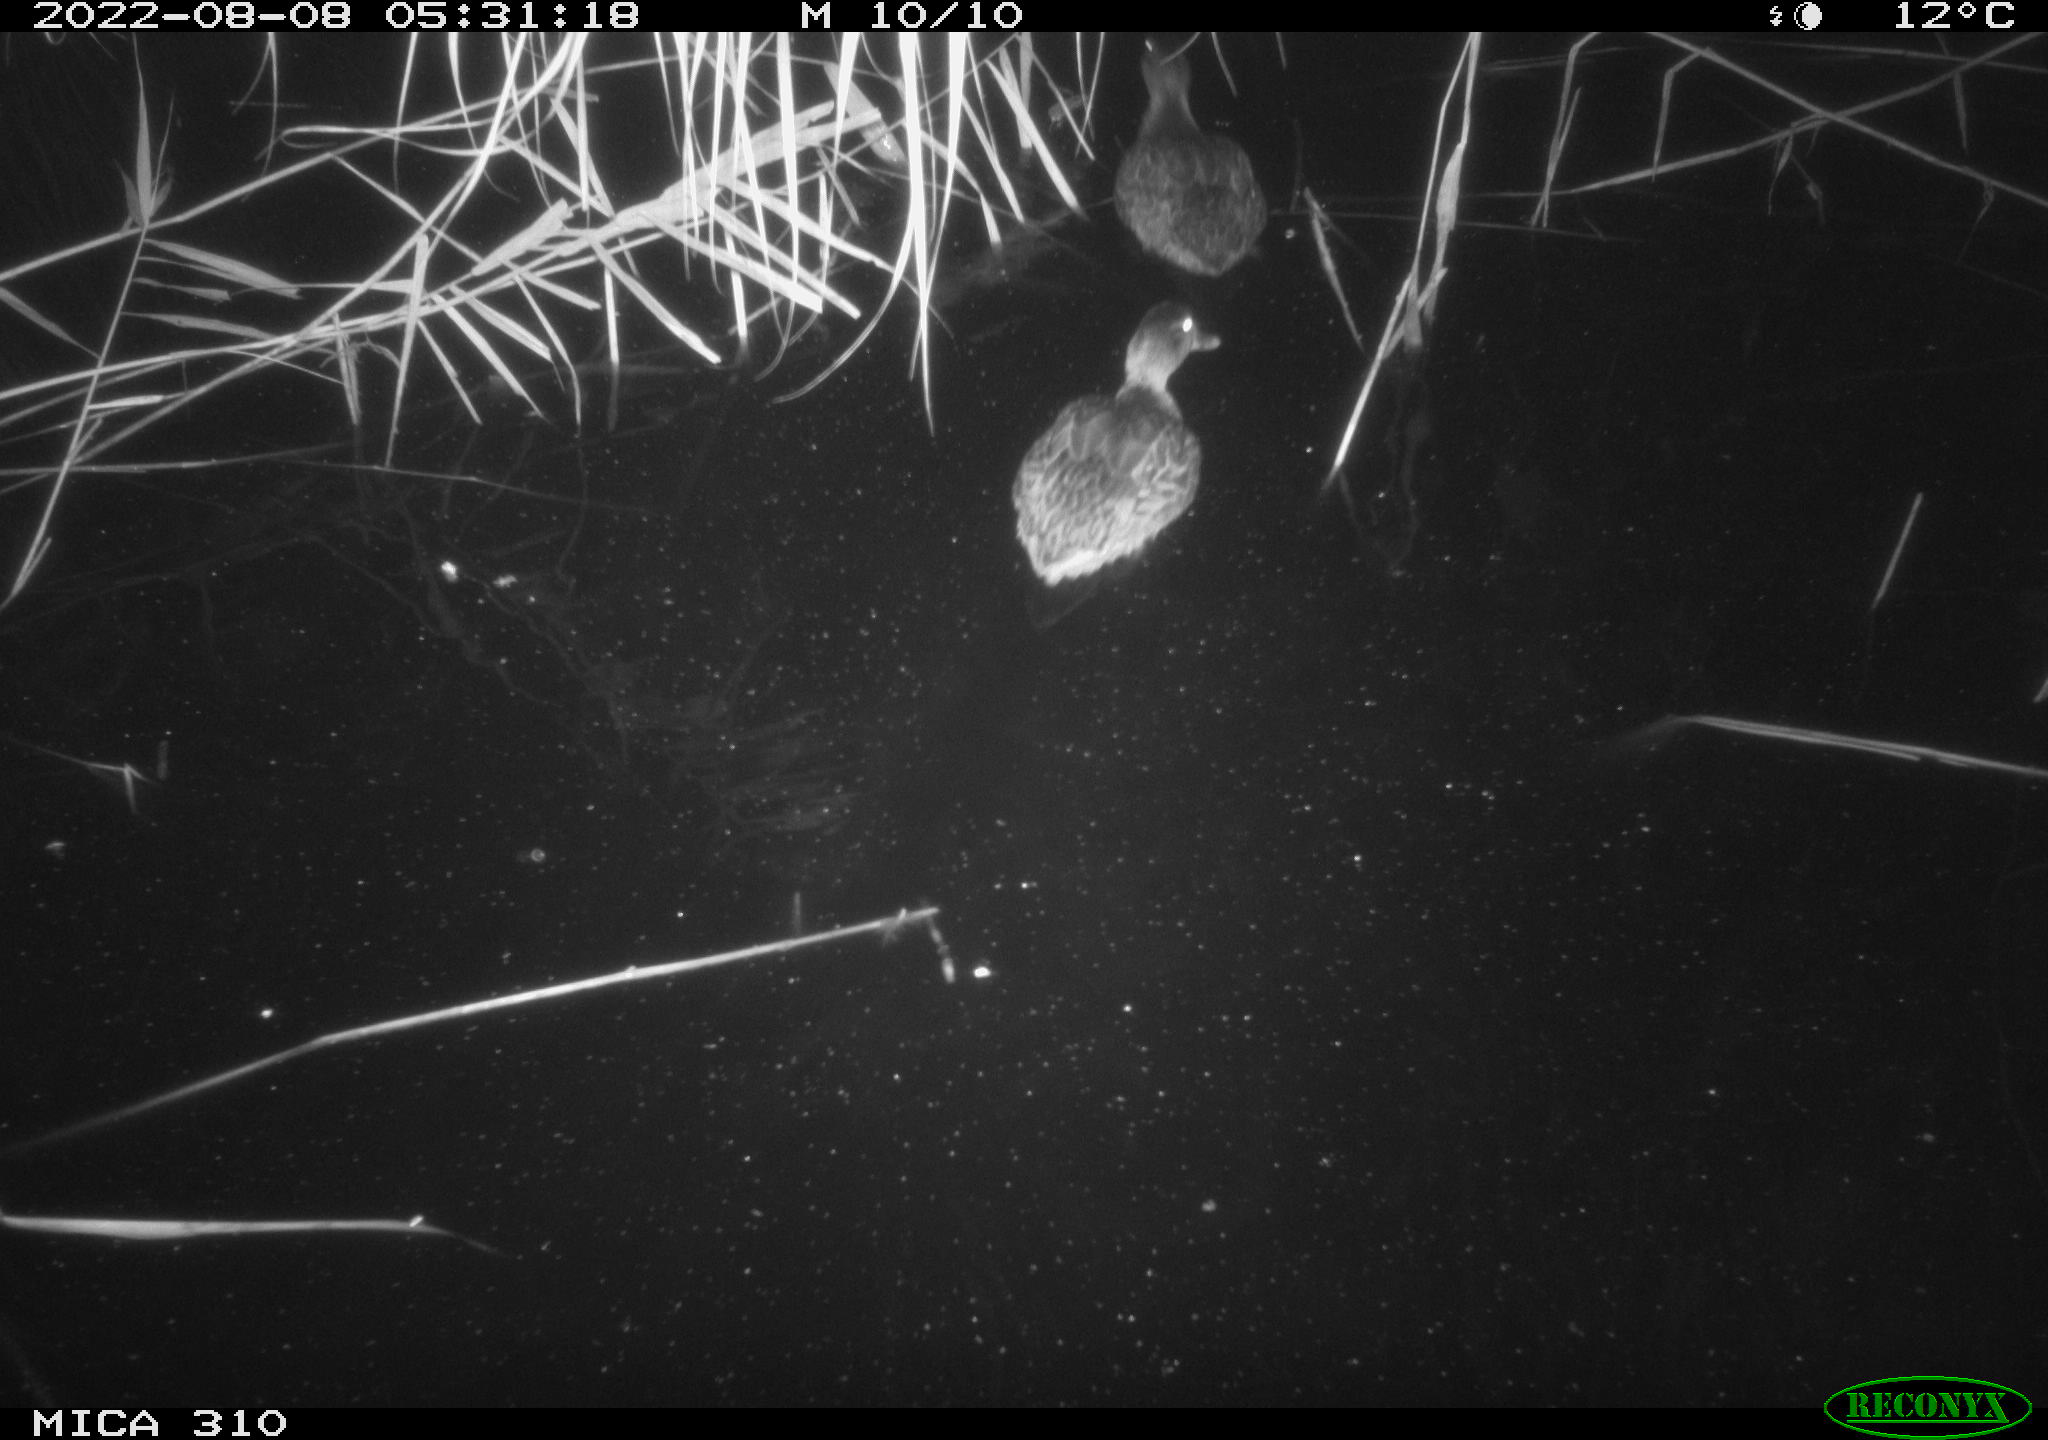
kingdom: Animalia
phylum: Chordata
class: Aves
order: Anseriformes
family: Anatidae
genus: Anas
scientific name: Anas platyrhynchos
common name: Mallard
